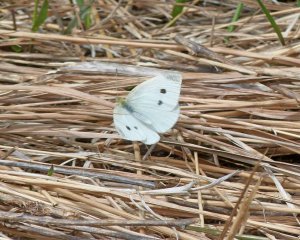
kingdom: Animalia
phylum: Arthropoda
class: Insecta
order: Lepidoptera
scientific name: Lepidoptera
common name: Butterflies
